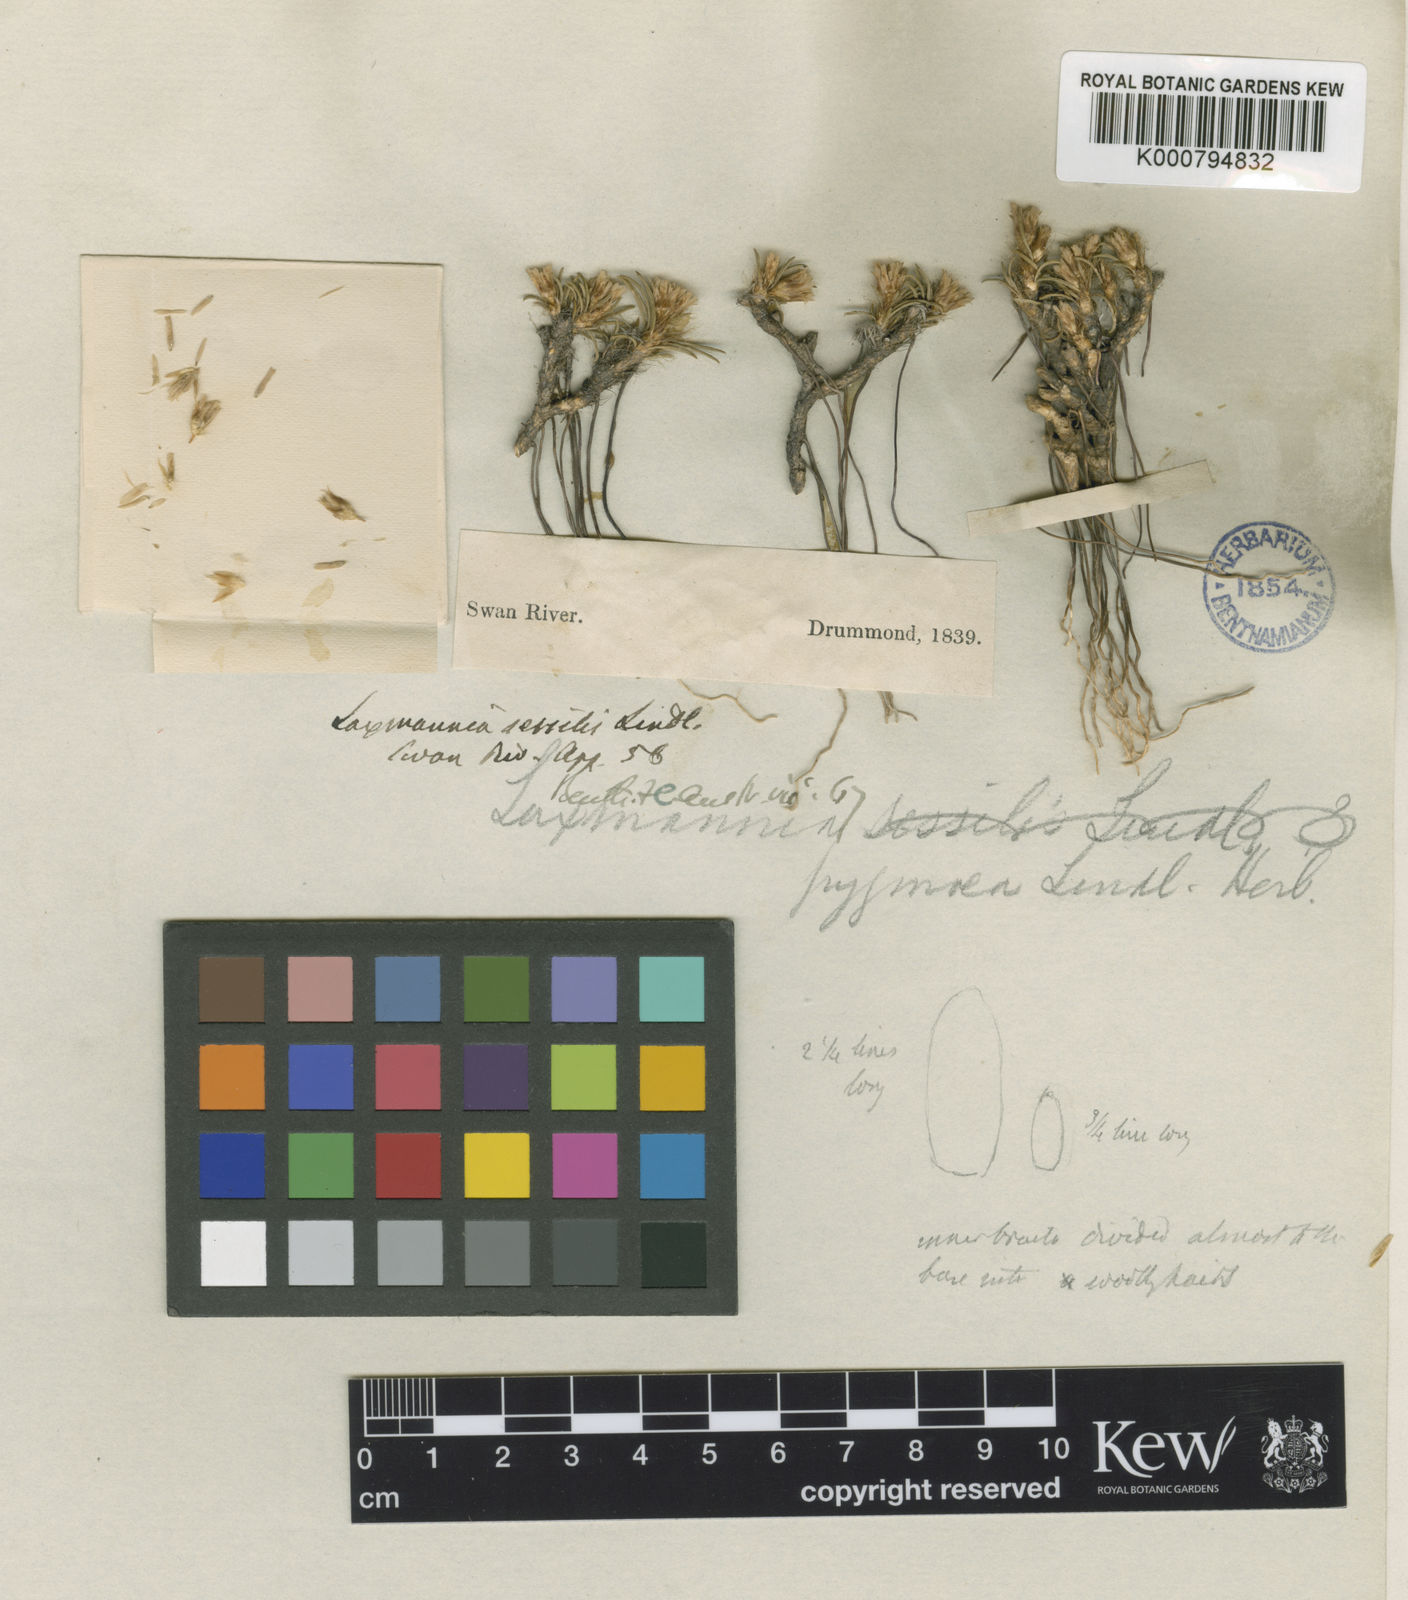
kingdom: Plantae
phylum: Tracheophyta
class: Liliopsida
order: Asparagales
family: Asparagaceae
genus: Laxmannia
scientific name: Laxmannia squarrosa
